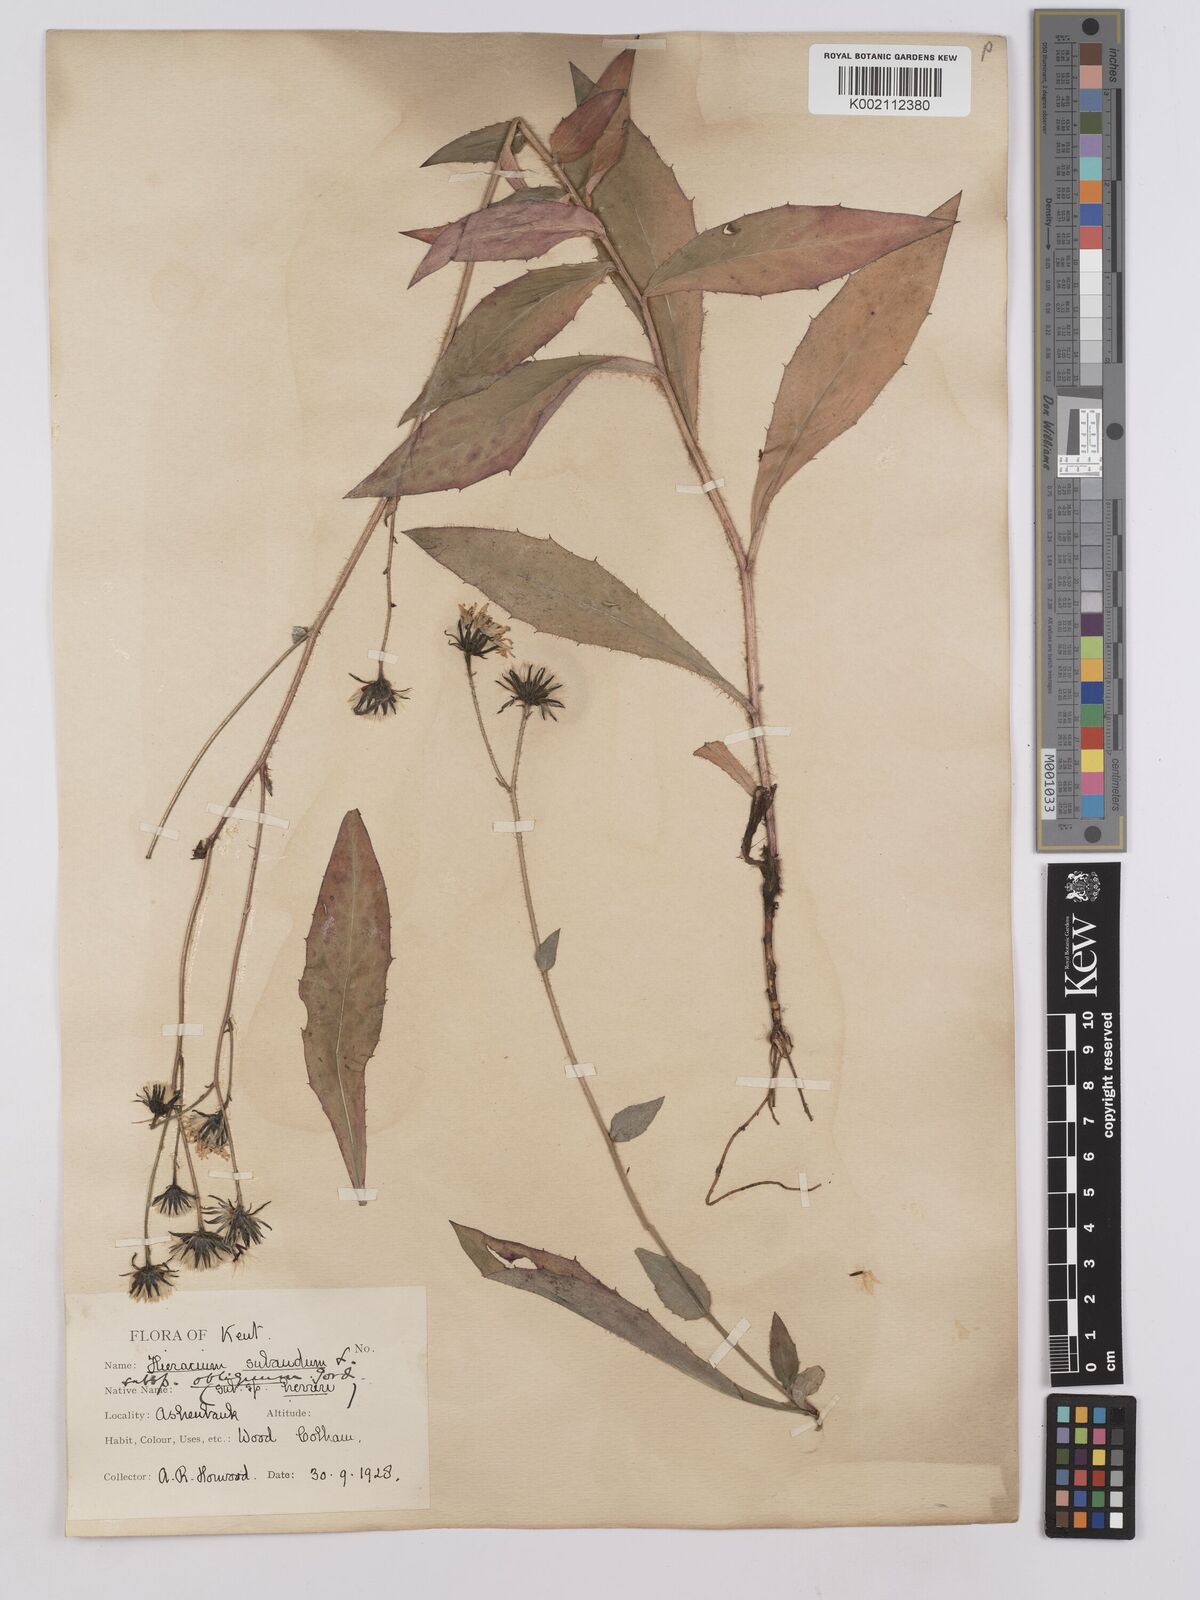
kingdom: Plantae
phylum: Tracheophyta
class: Magnoliopsida
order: Asterales
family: Asteraceae
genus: Hieracium
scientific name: Hieracium sabaudum
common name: New england hawkweed
